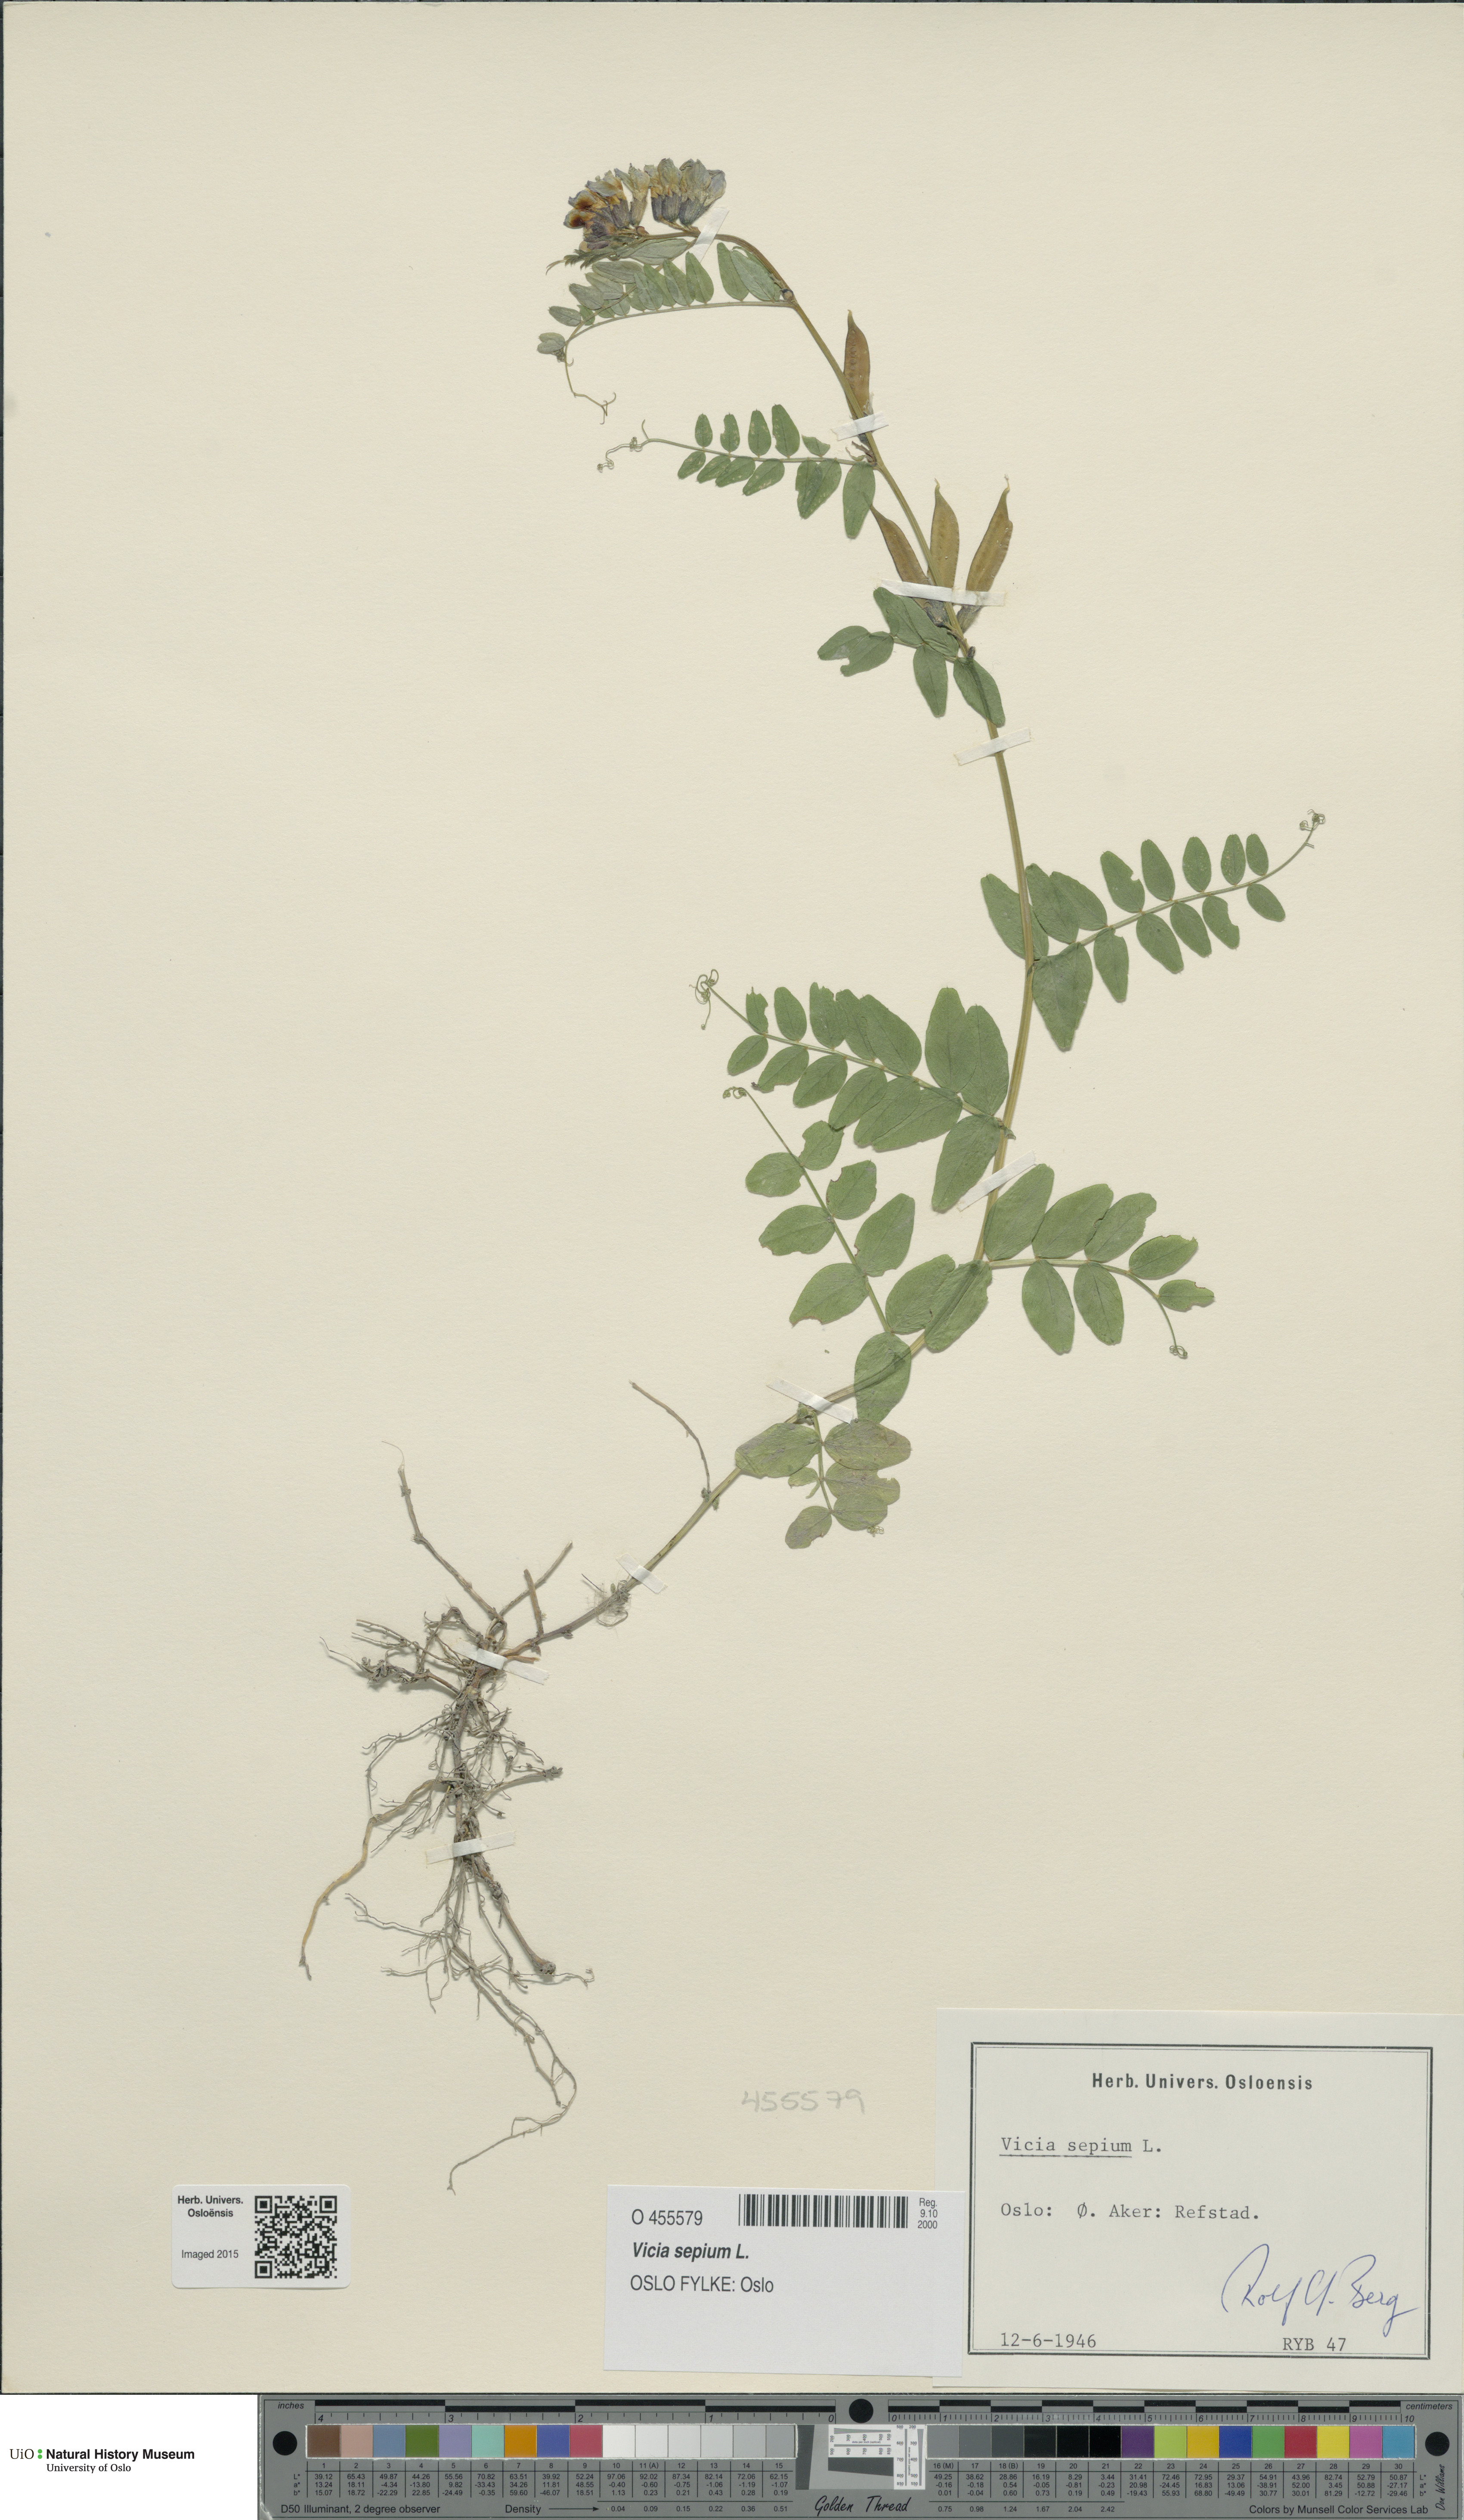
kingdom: Plantae
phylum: Tracheophyta
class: Magnoliopsida
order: Fabales
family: Fabaceae
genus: Vicia
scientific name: Vicia sepium
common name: Bush vetch
